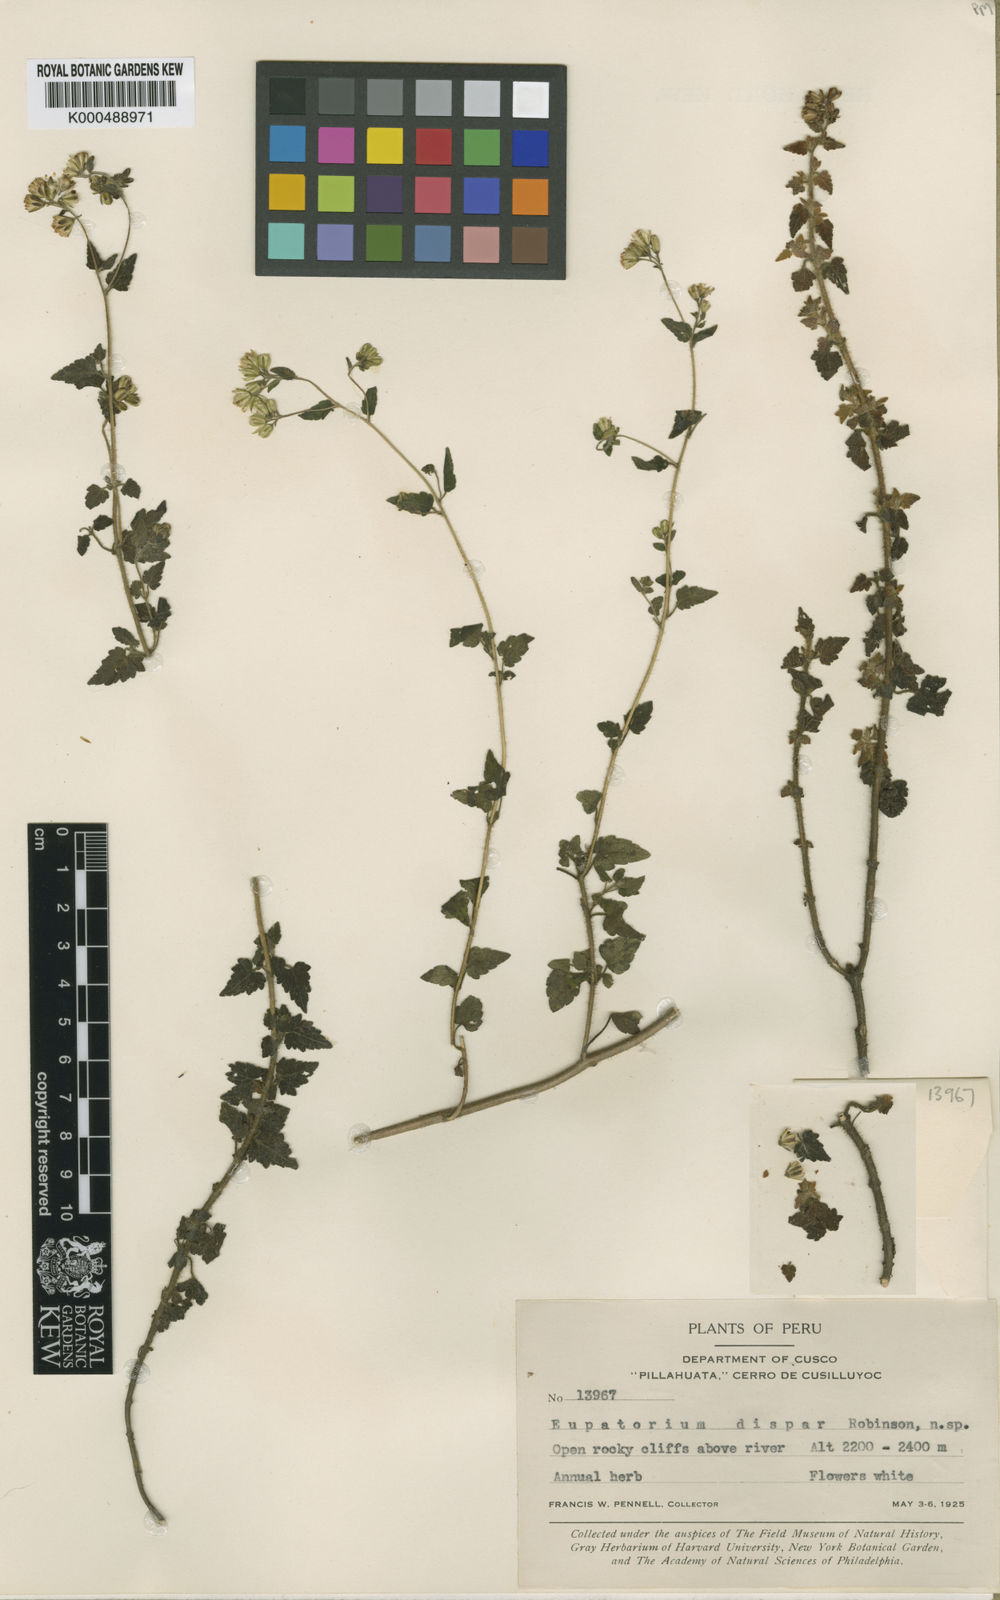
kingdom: Plantae
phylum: Tracheophyta
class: Magnoliopsida
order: Asterales
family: Asteraceae
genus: Neocuatrecasia
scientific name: Neocuatrecasia dispar
